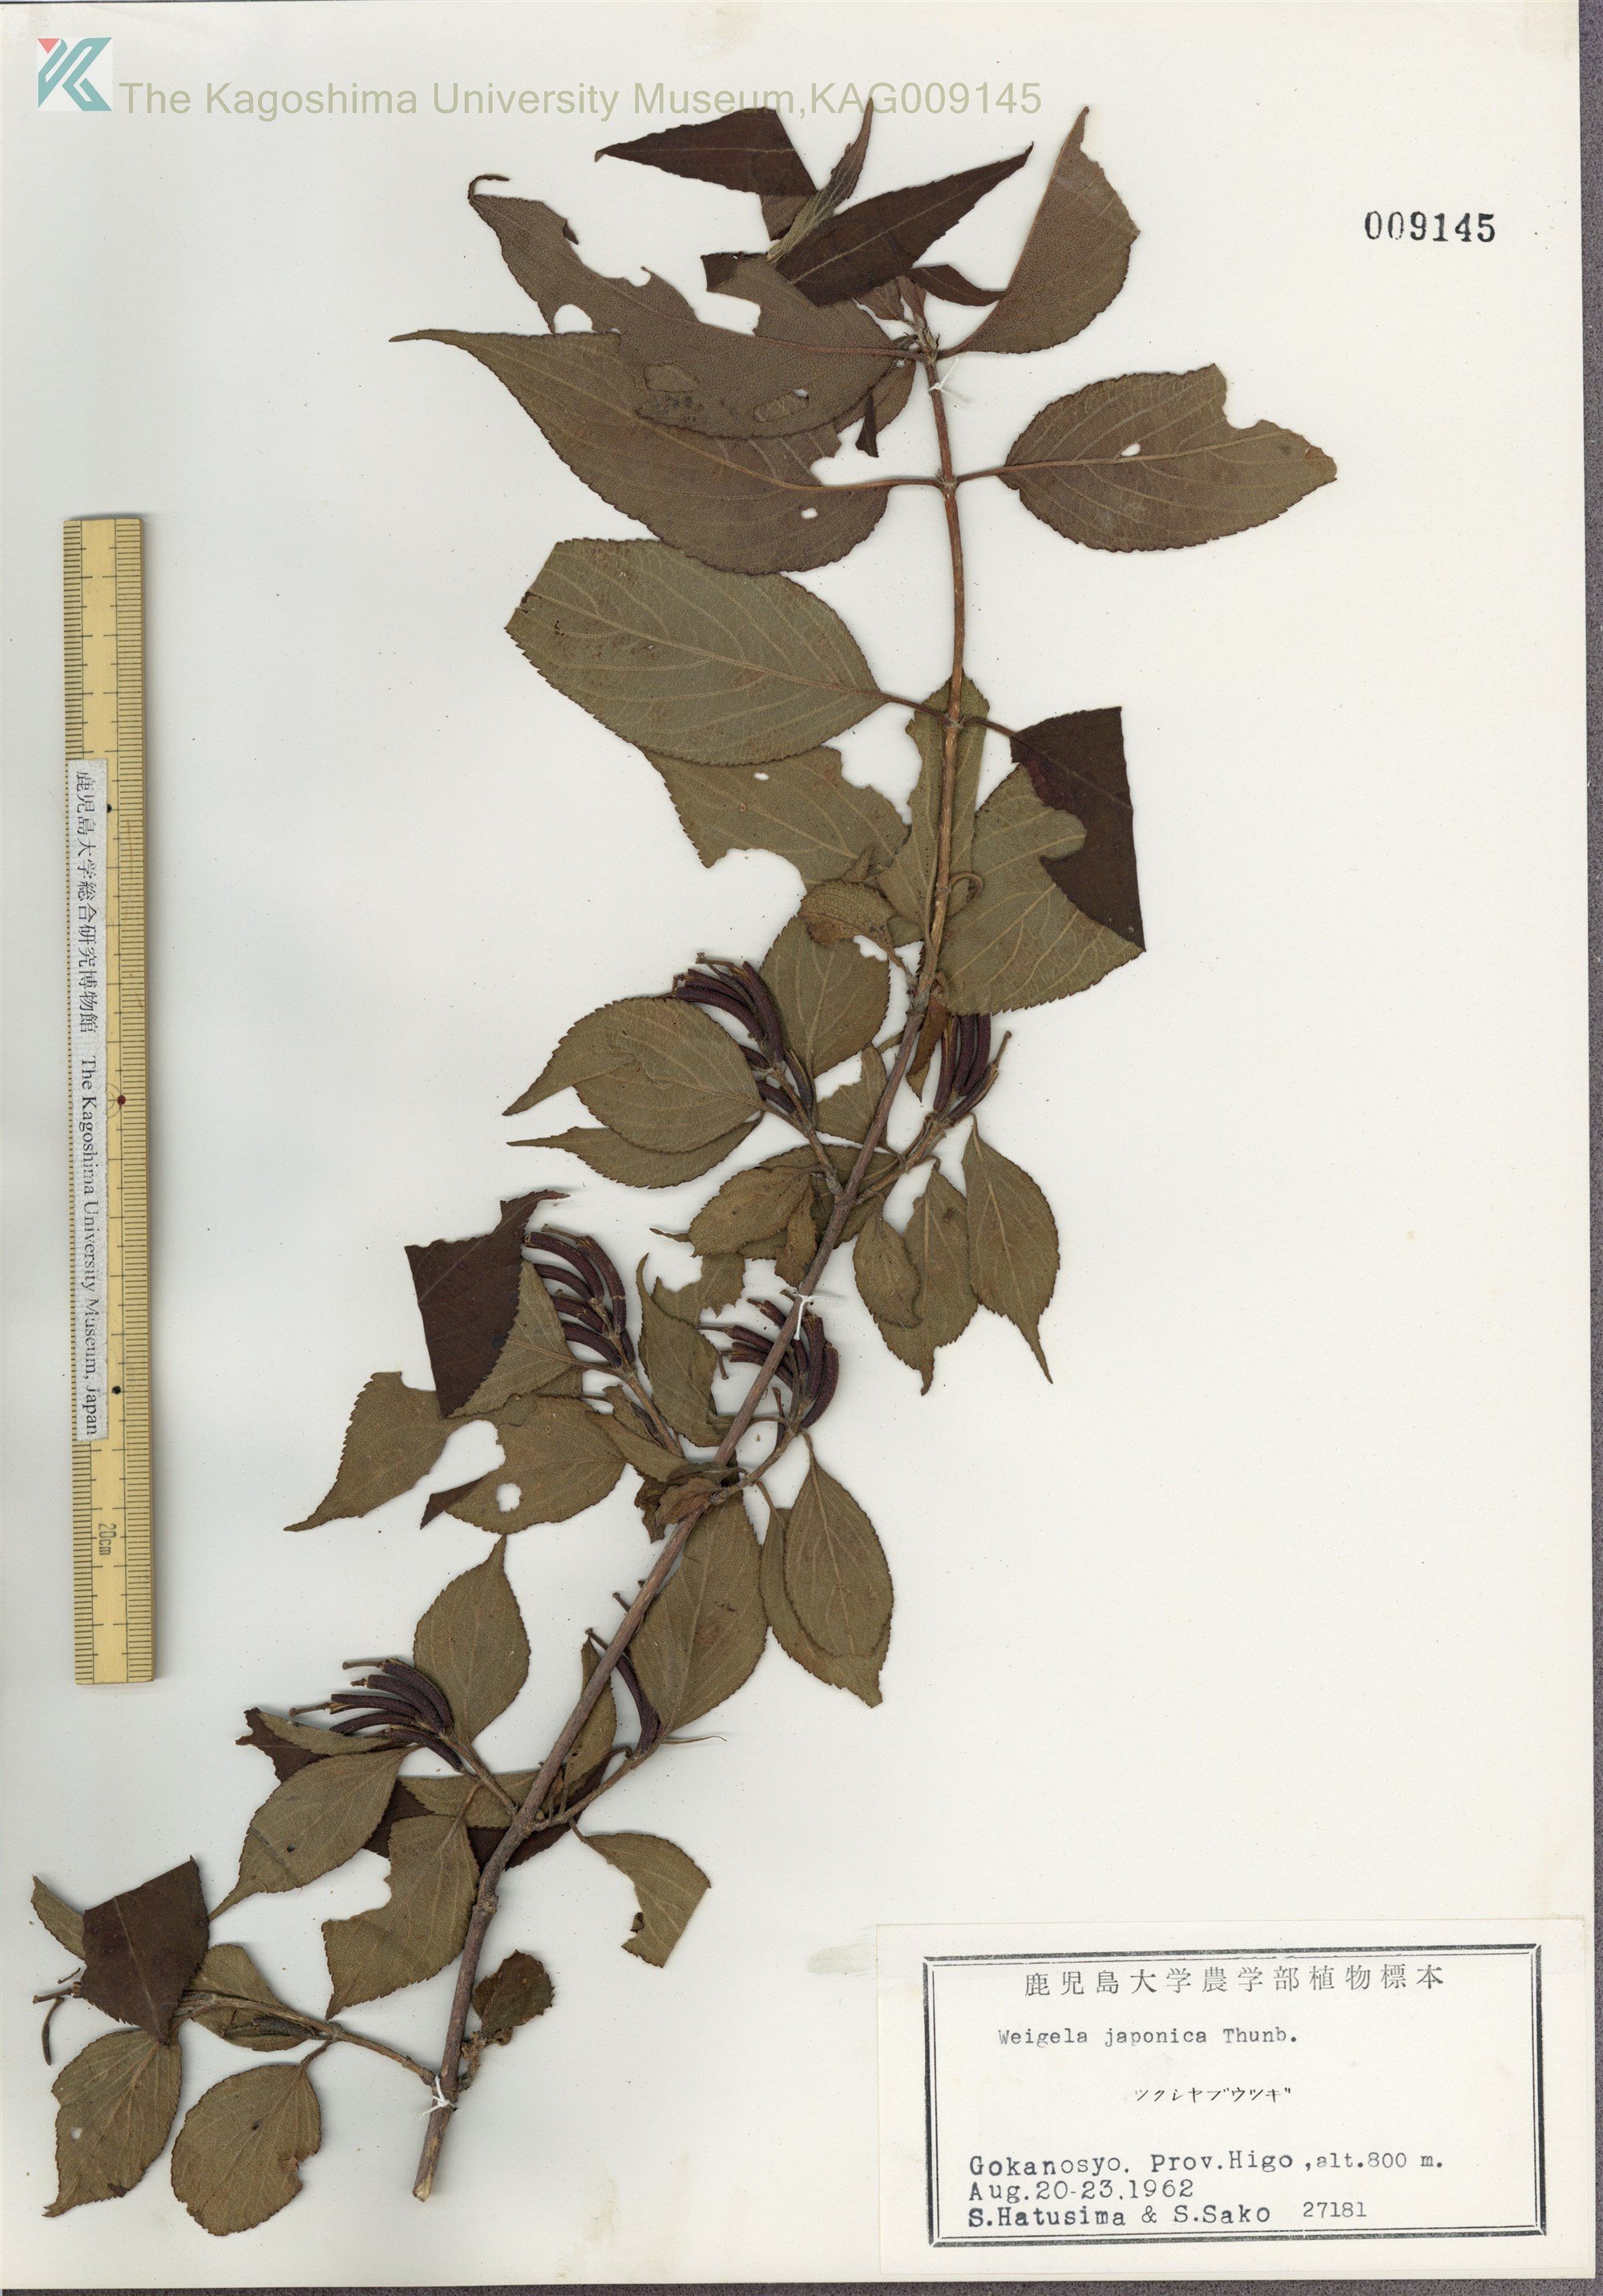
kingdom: Plantae
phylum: Tracheophyta
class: Magnoliopsida
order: Dipsacales
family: Caprifoliaceae
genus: Weigela
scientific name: Weigela japonica
